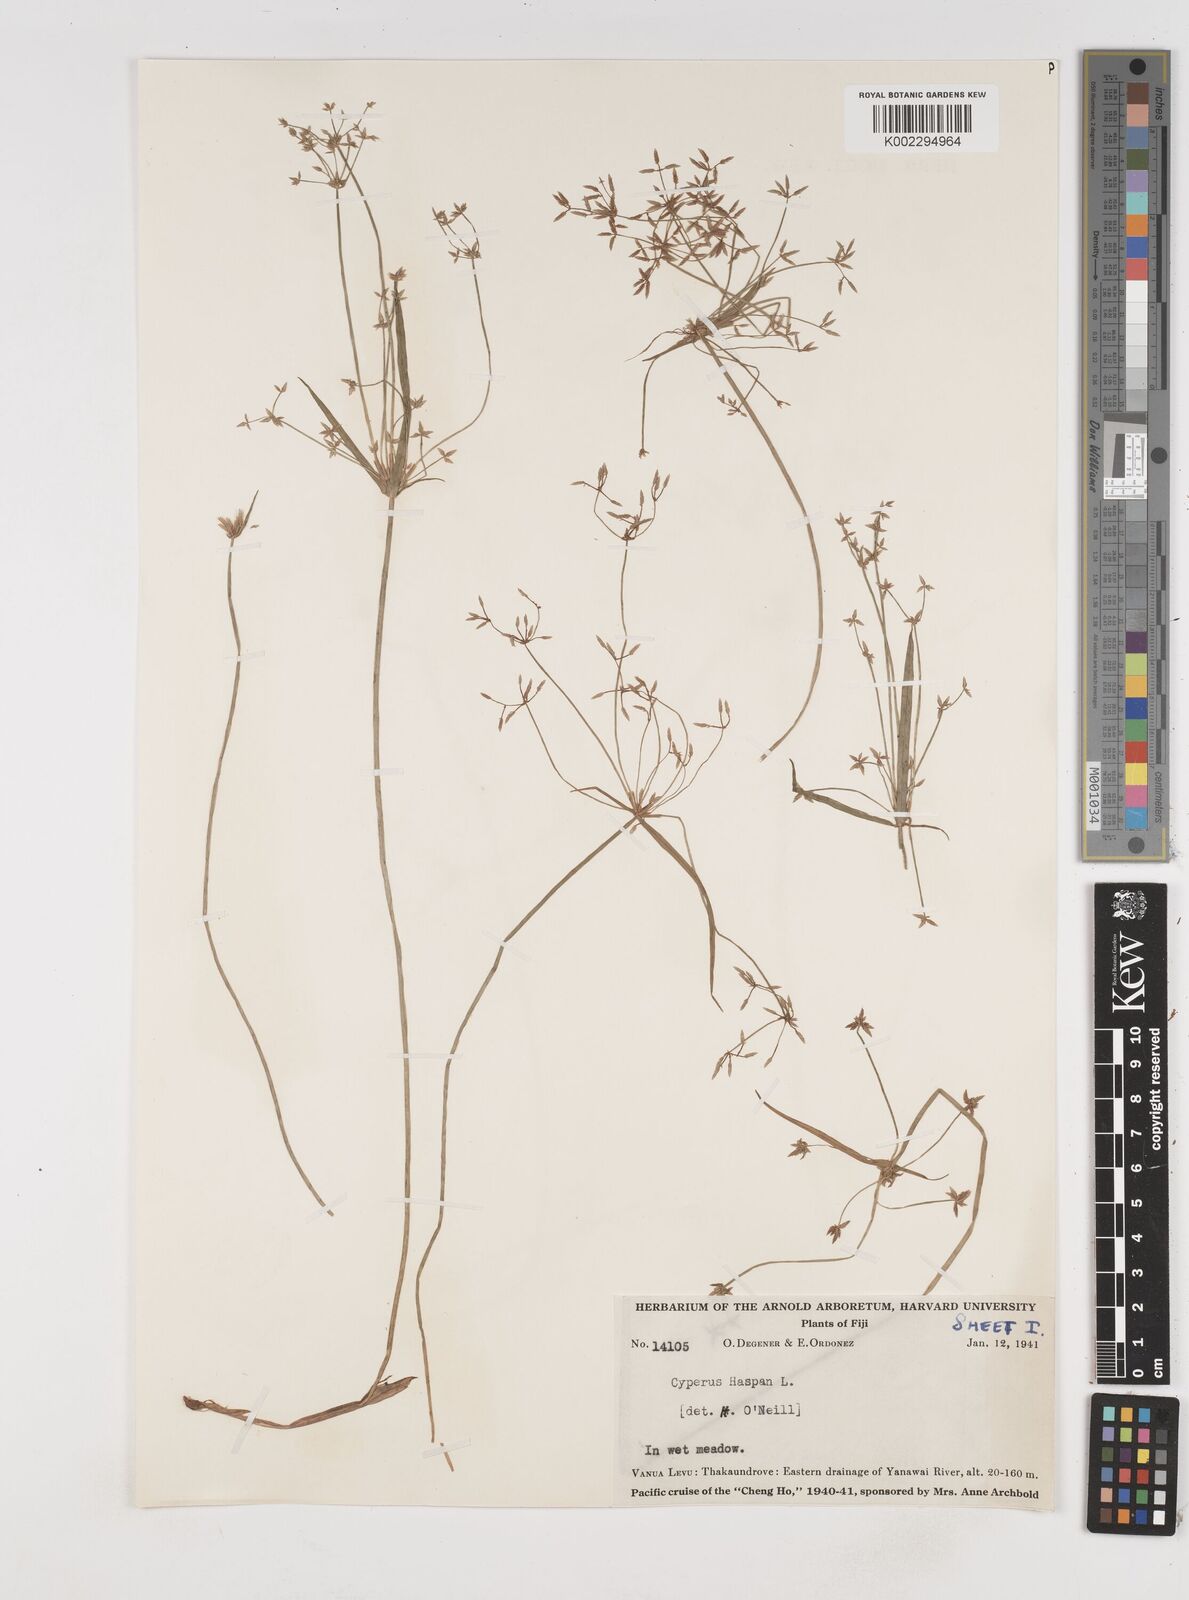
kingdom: Plantae
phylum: Tracheophyta
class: Liliopsida
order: Poales
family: Cyperaceae
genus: Cyperus
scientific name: Cyperus haspan
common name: Haspan flatsedge
